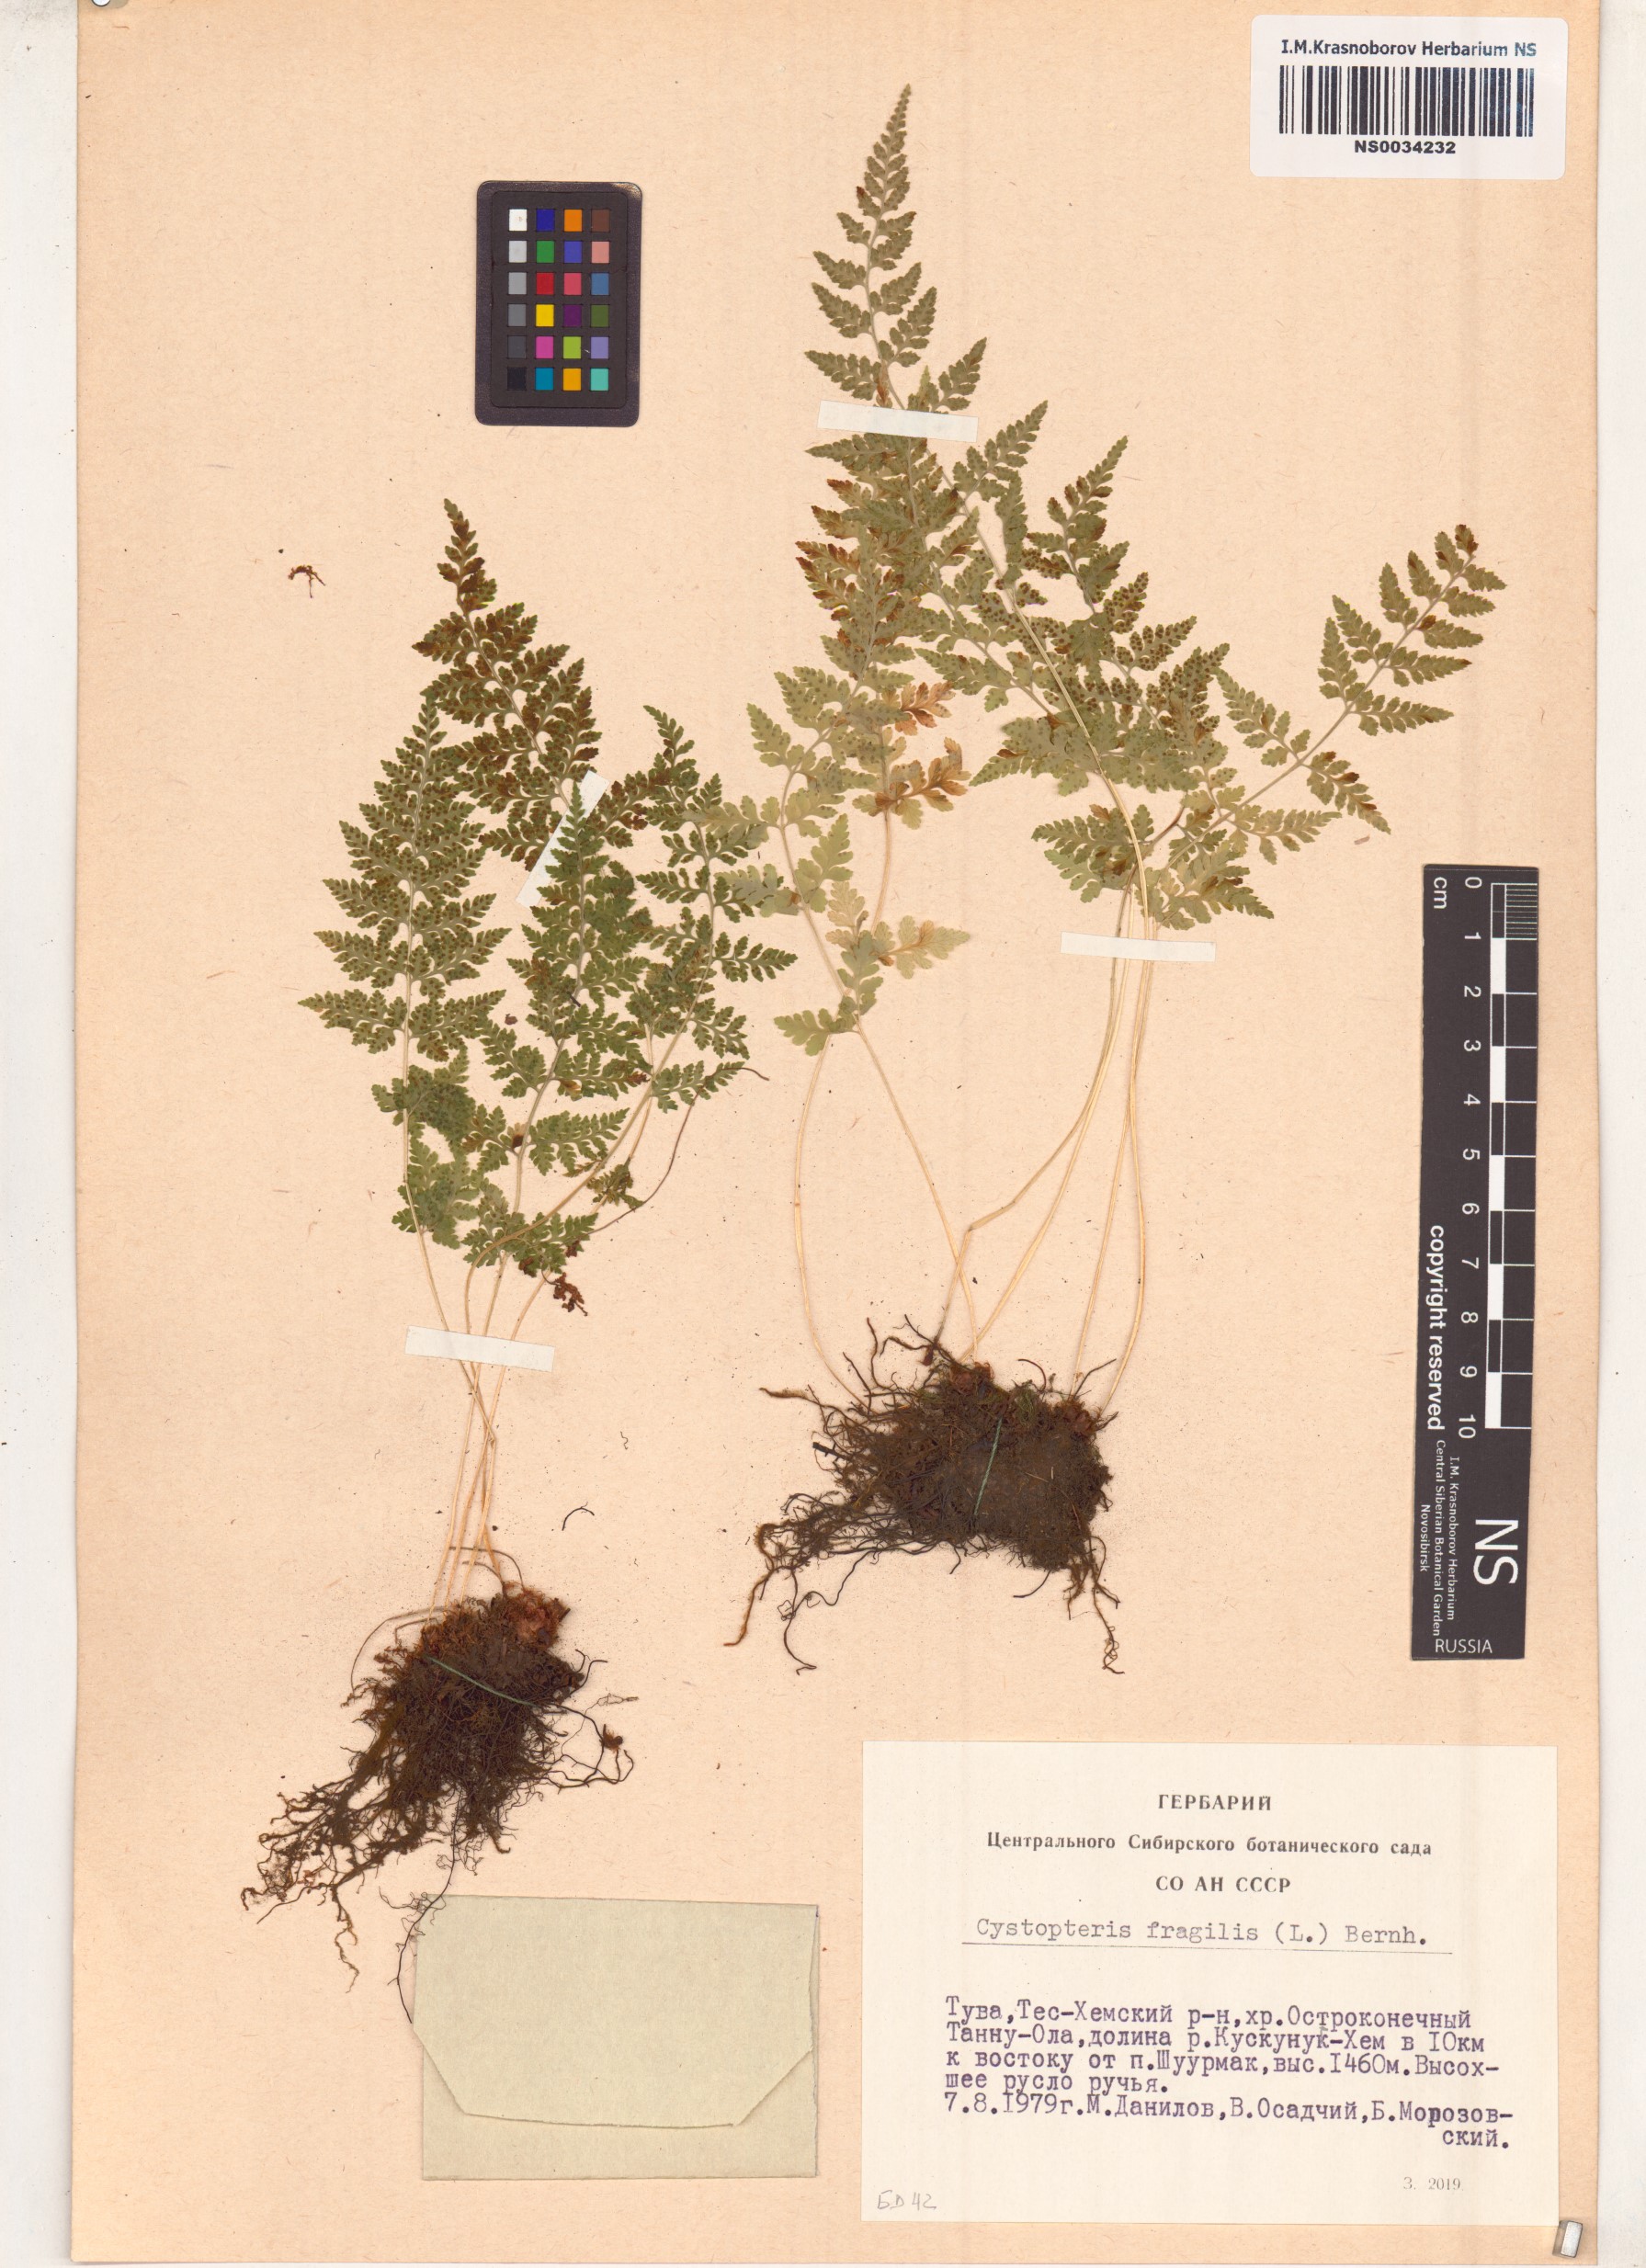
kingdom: Plantae
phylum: Tracheophyta
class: Polypodiopsida
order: Polypodiales
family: Cystopteridaceae
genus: Cystopteris
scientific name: Cystopteris fragilis
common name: Brittle bladder fern
